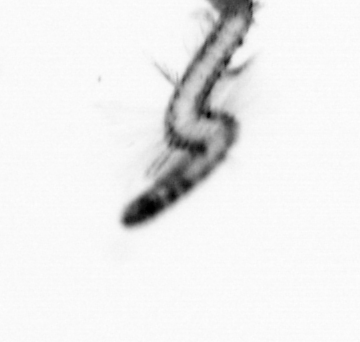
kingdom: Animalia
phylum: Annelida
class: Polychaeta
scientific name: Polychaeta
